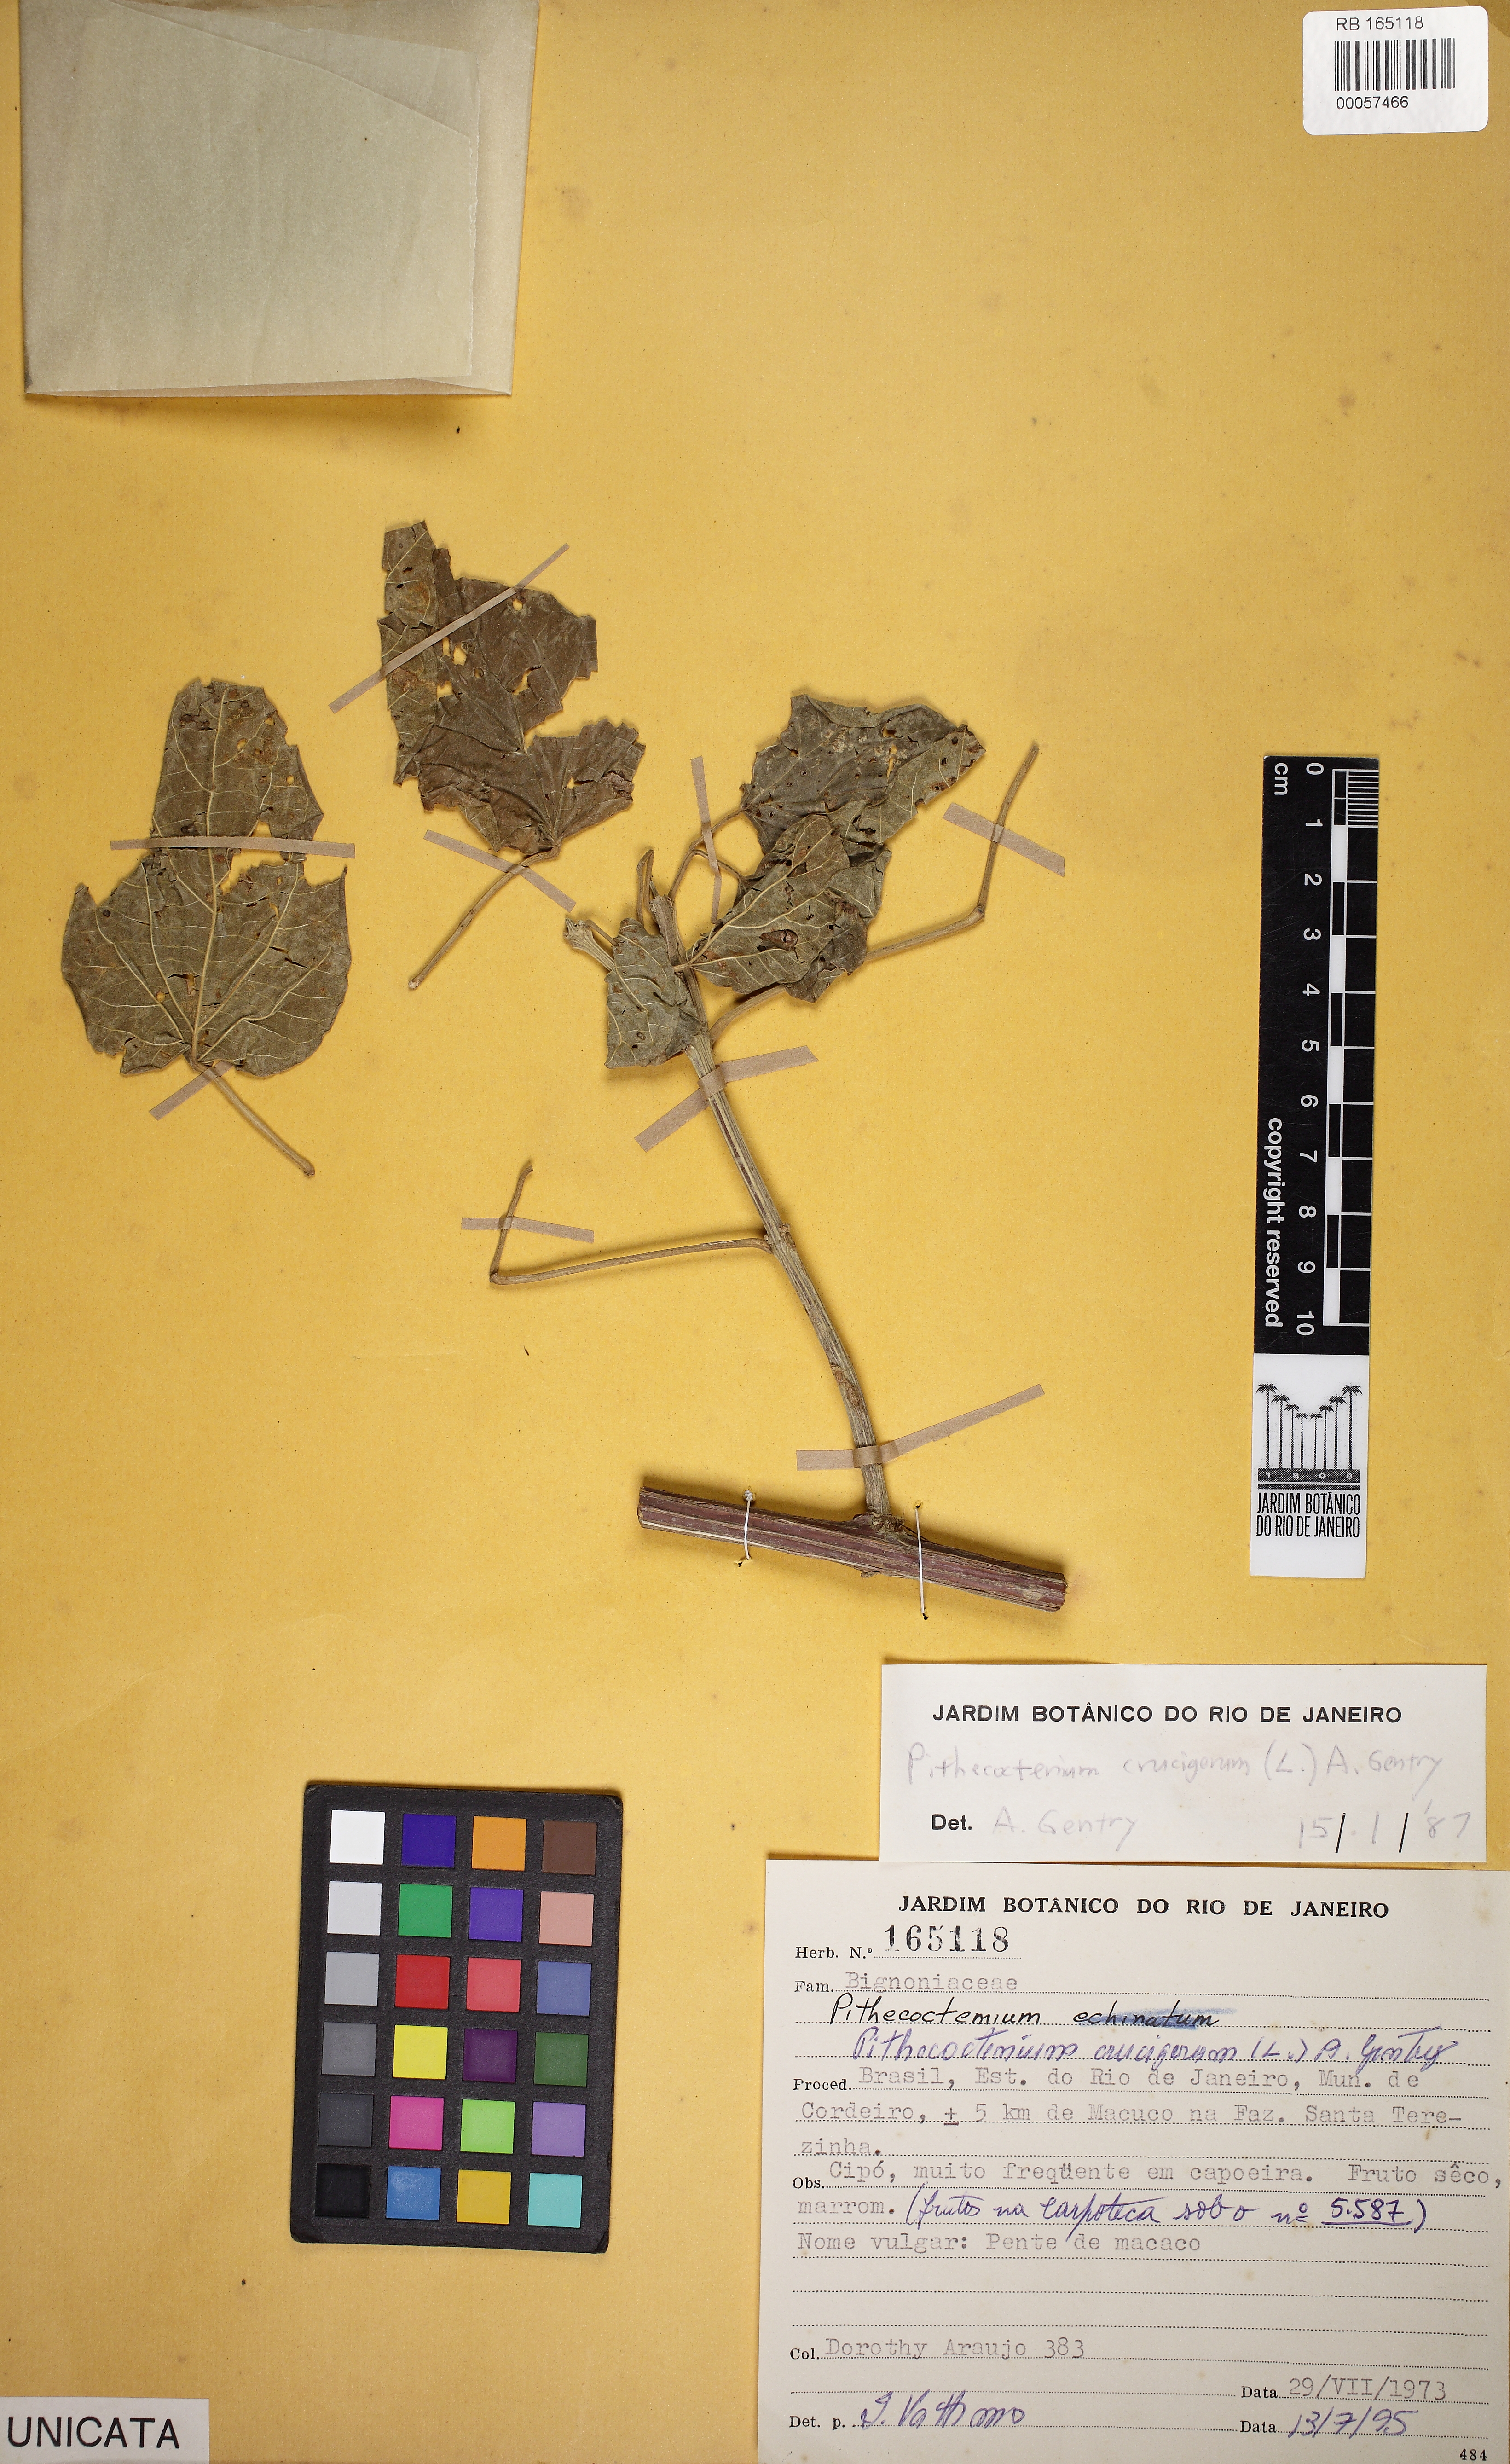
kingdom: Plantae
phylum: Tracheophyta
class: Magnoliopsida
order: Lamiales
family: Bignoniaceae
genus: Amphilophium
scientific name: Amphilophium crucigerum
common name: Monkey comb
